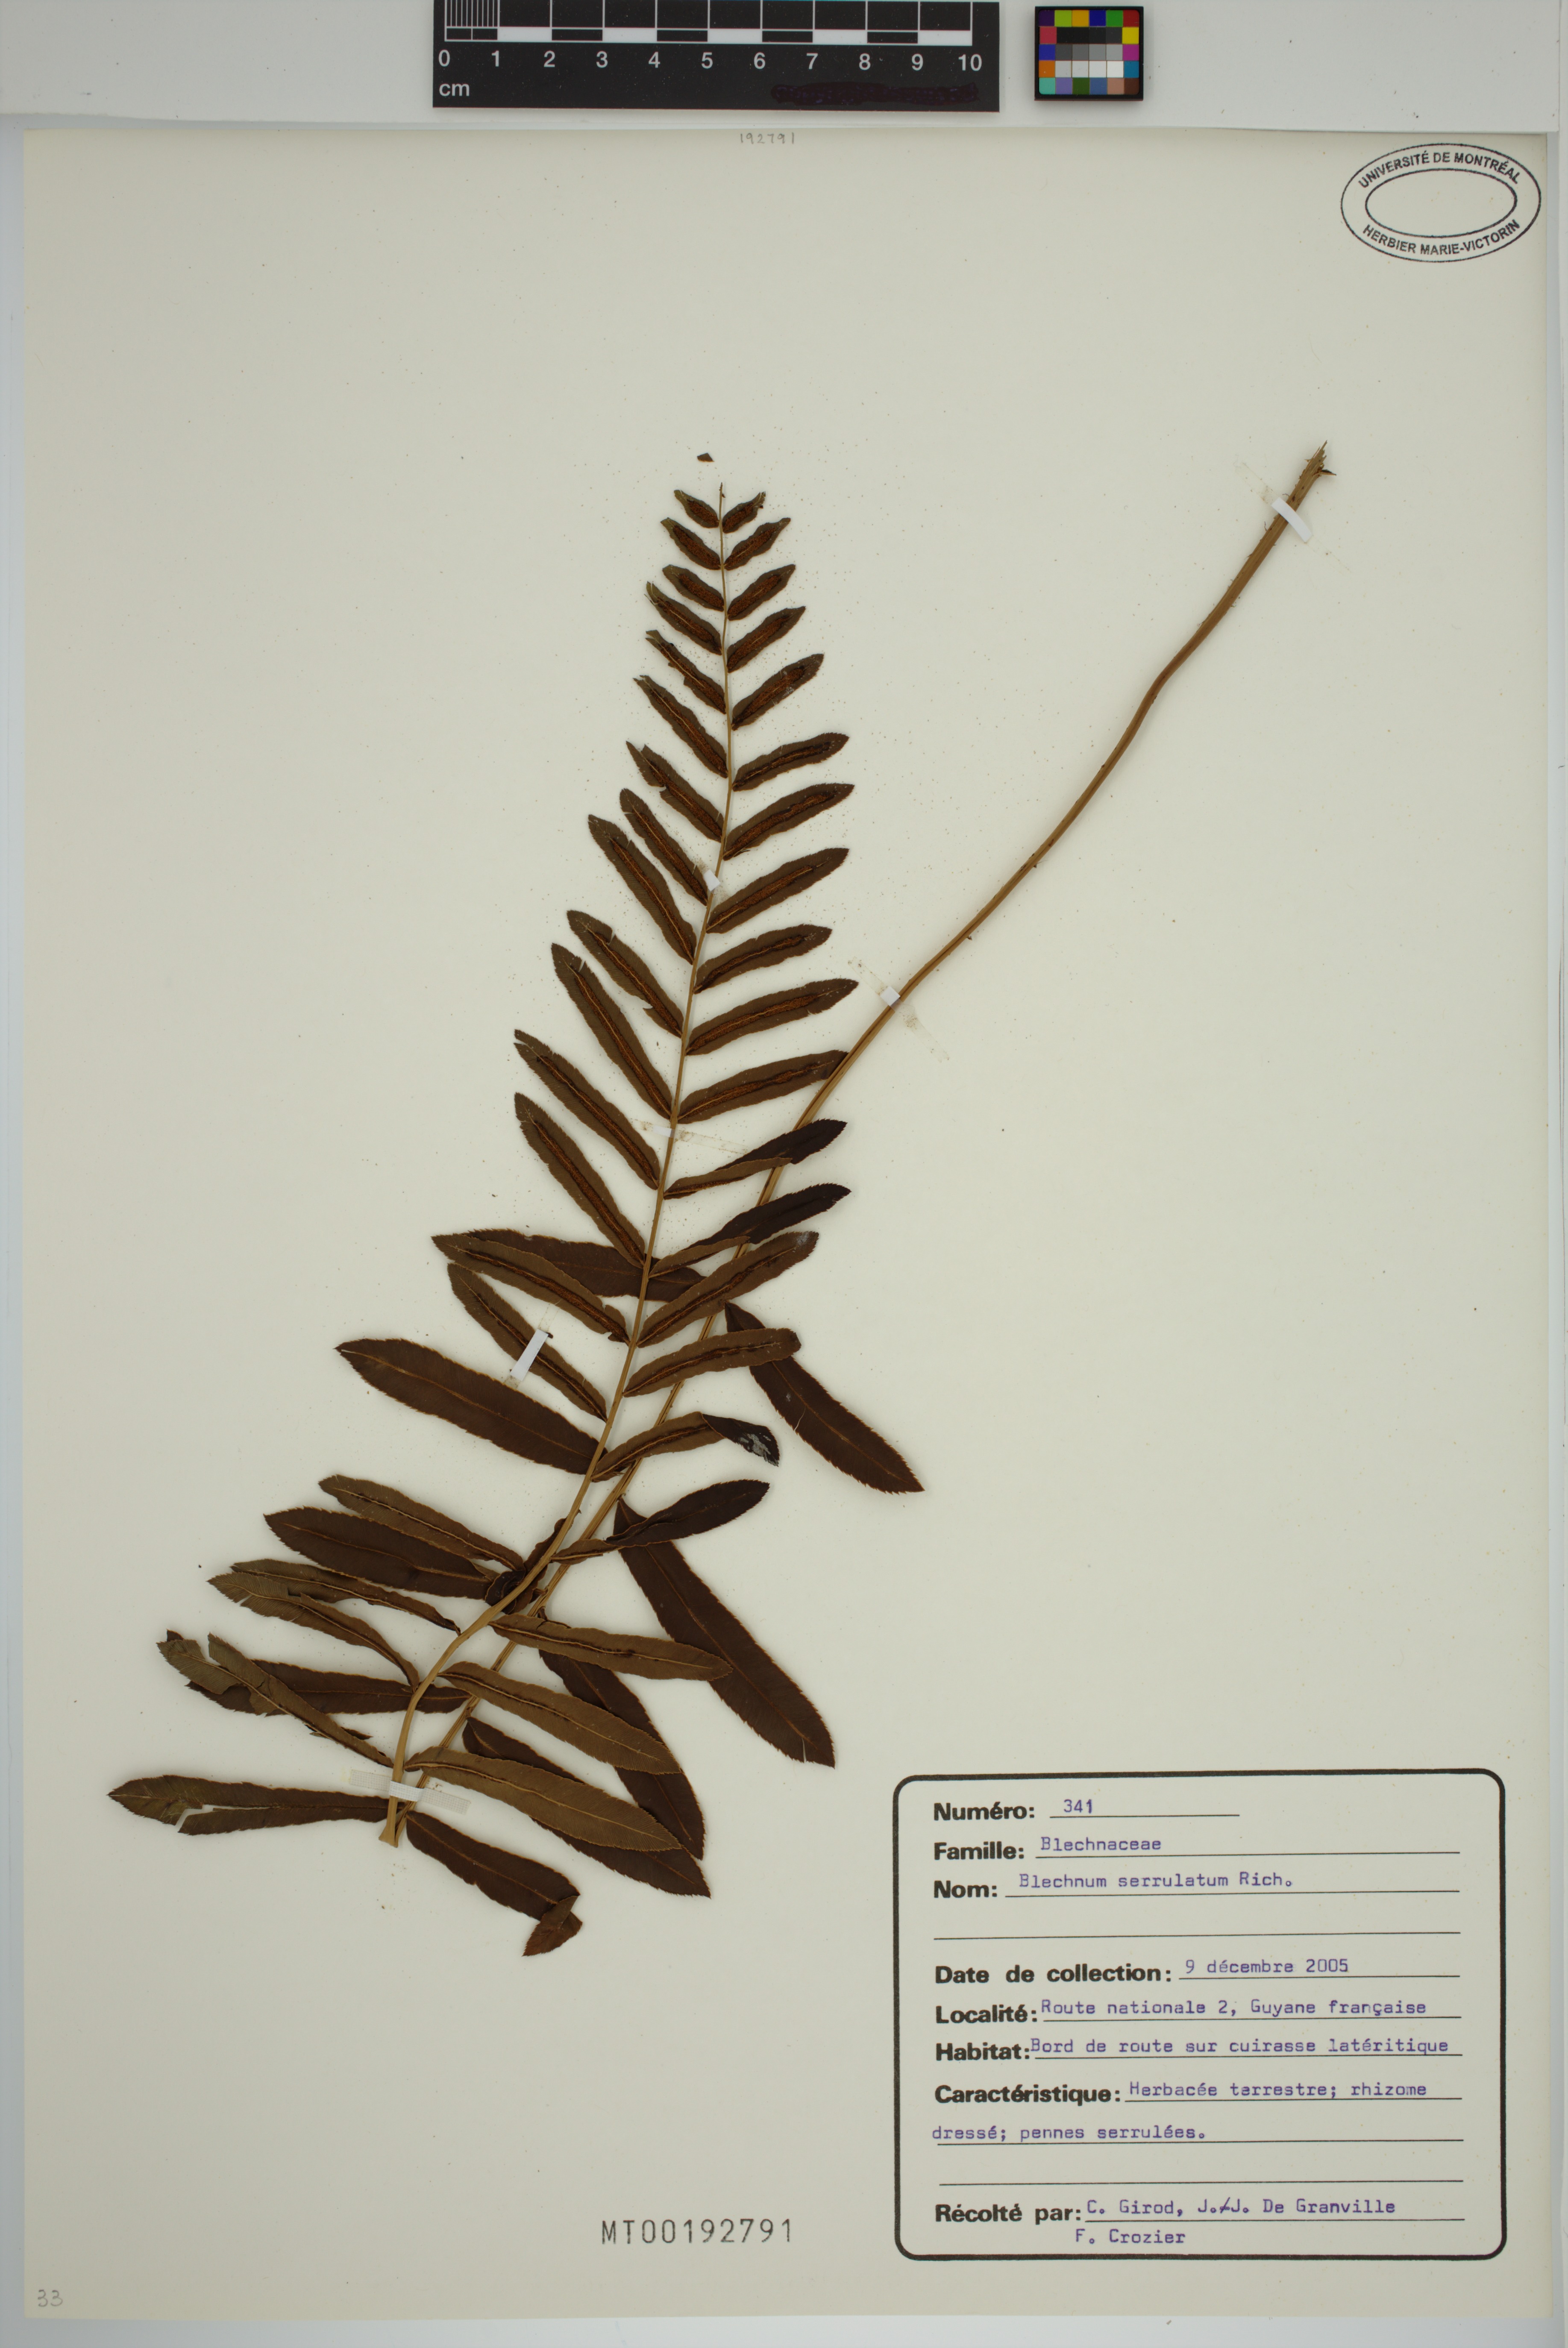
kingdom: Plantae
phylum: Tracheophyta
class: Polypodiopsida
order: Polypodiales
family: Blechnaceae
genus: Telmatoblechnum
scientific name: Telmatoblechnum serrulatum
